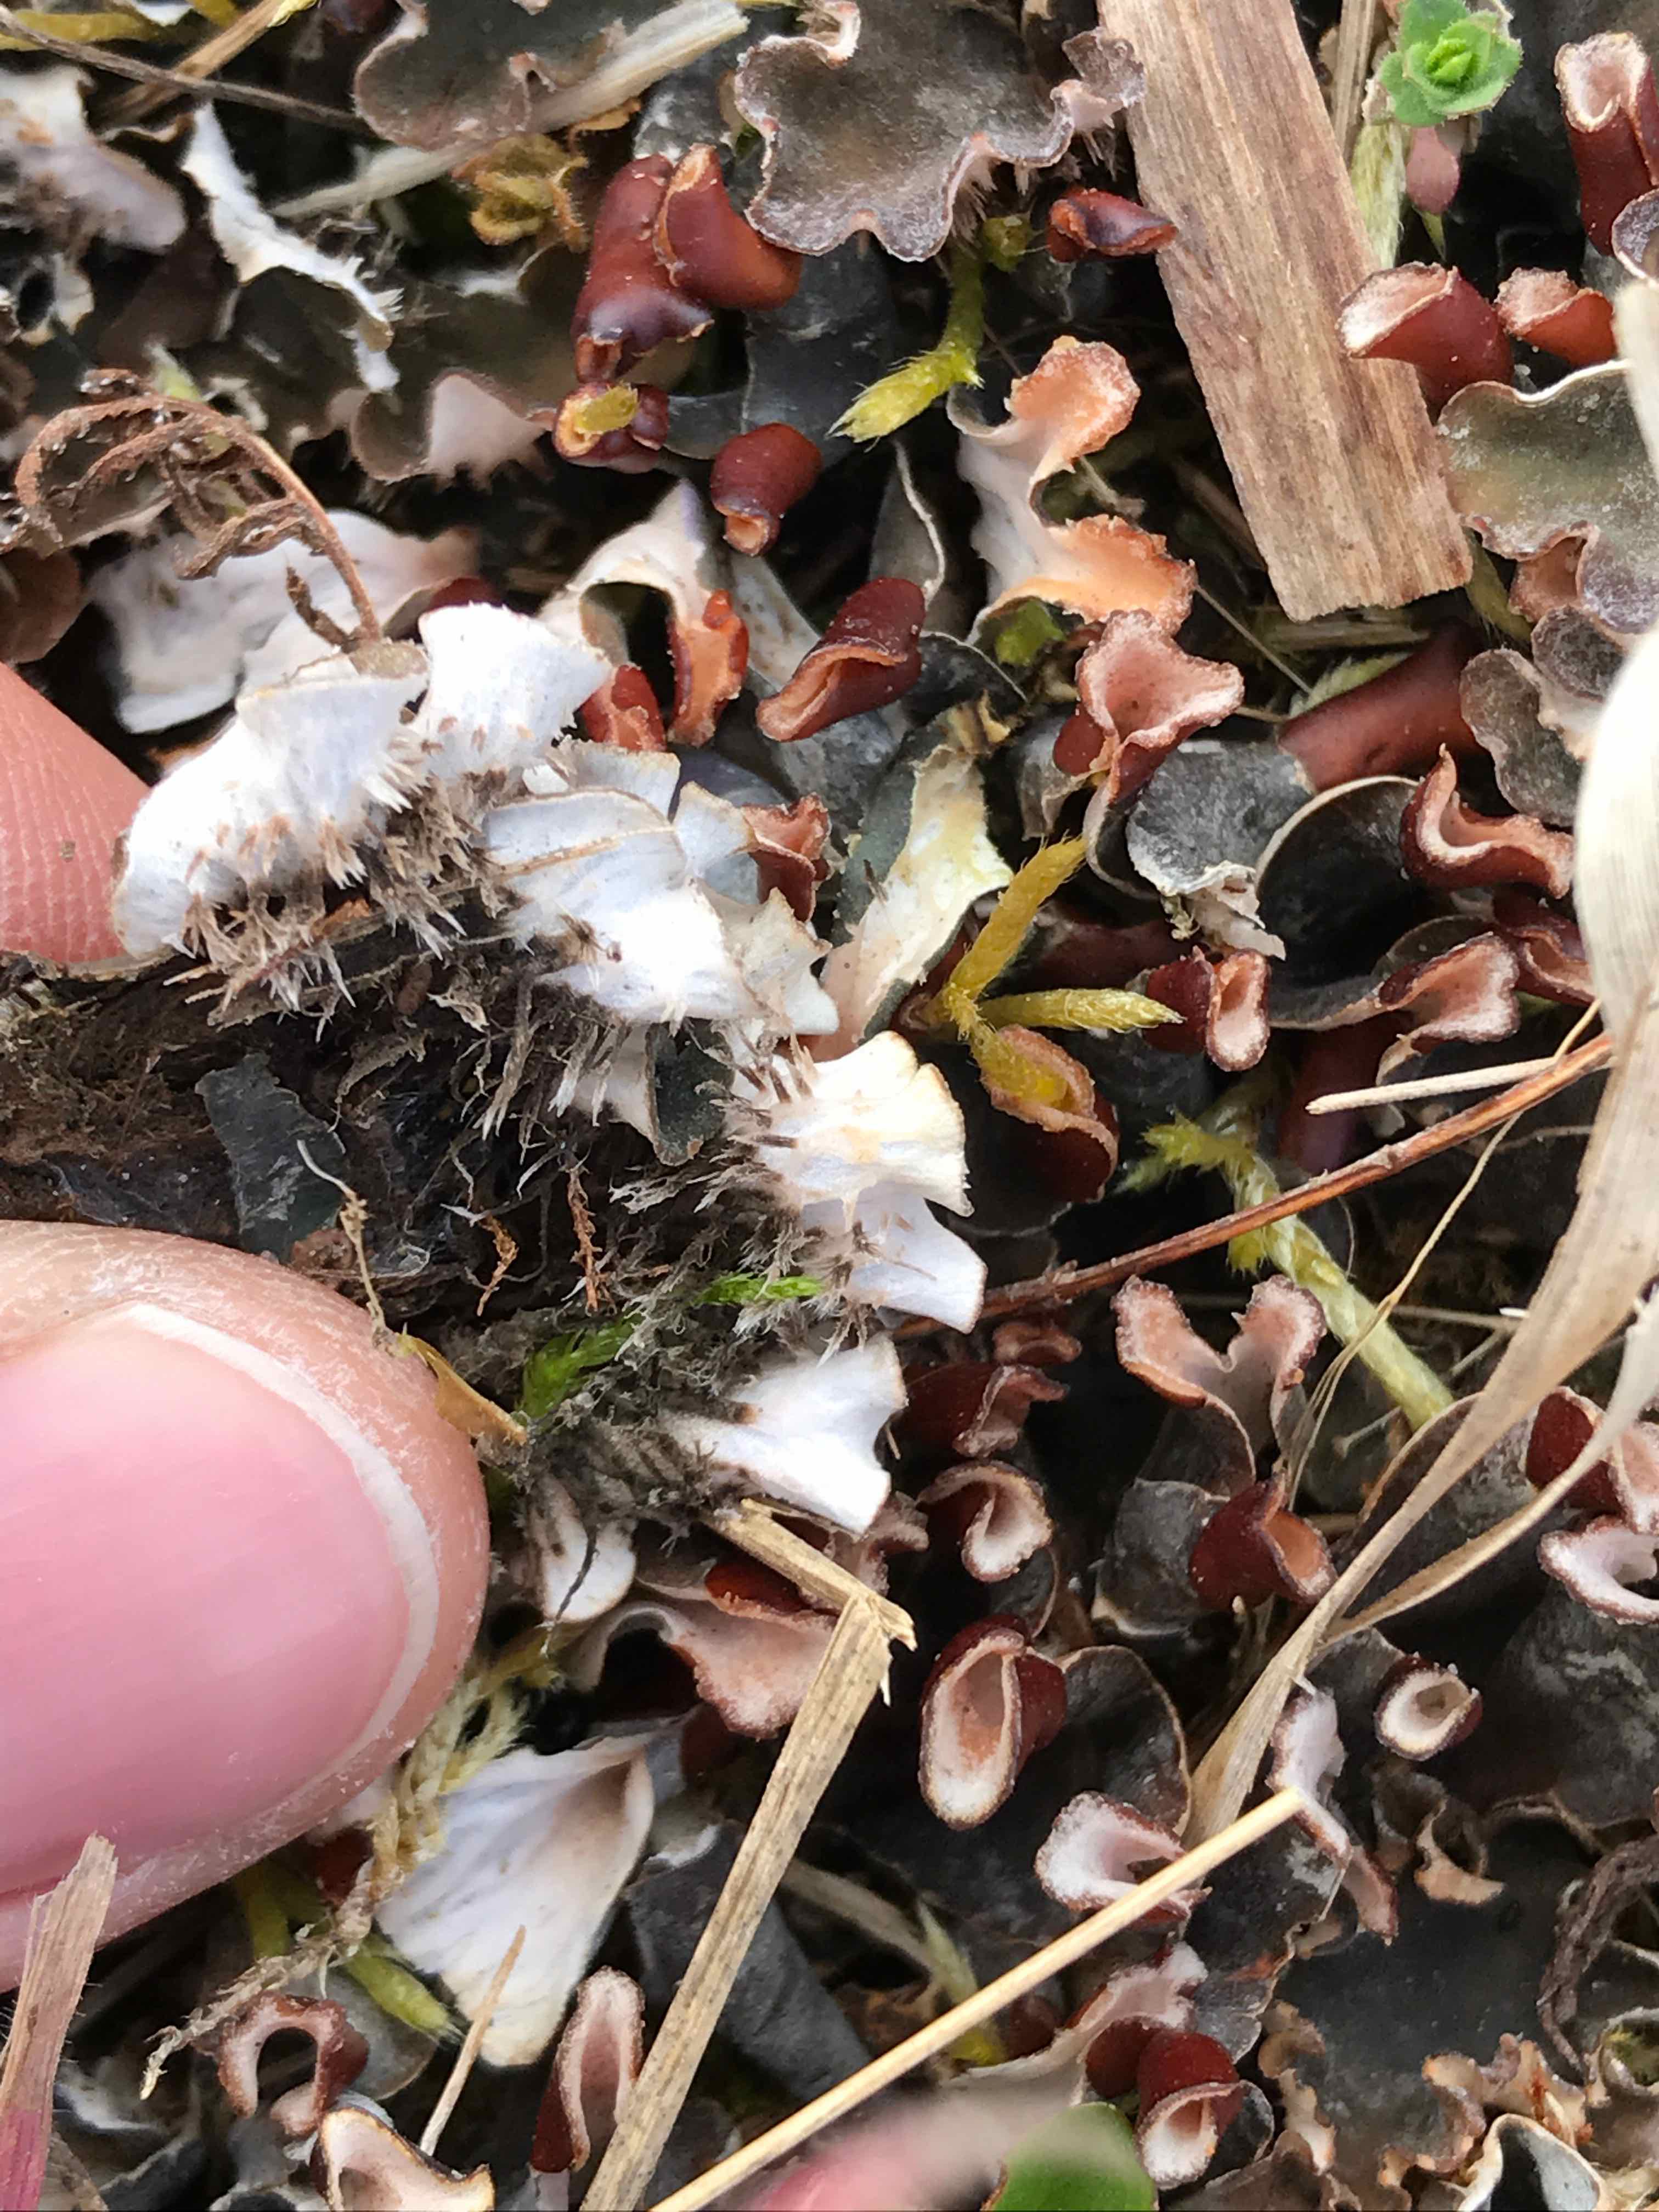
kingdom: Fungi
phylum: Ascomycota
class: Lecanoromycetes
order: Peltigerales
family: Peltigeraceae
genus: Peltigera
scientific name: Peltigera didactyla
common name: liden skjoldlav
